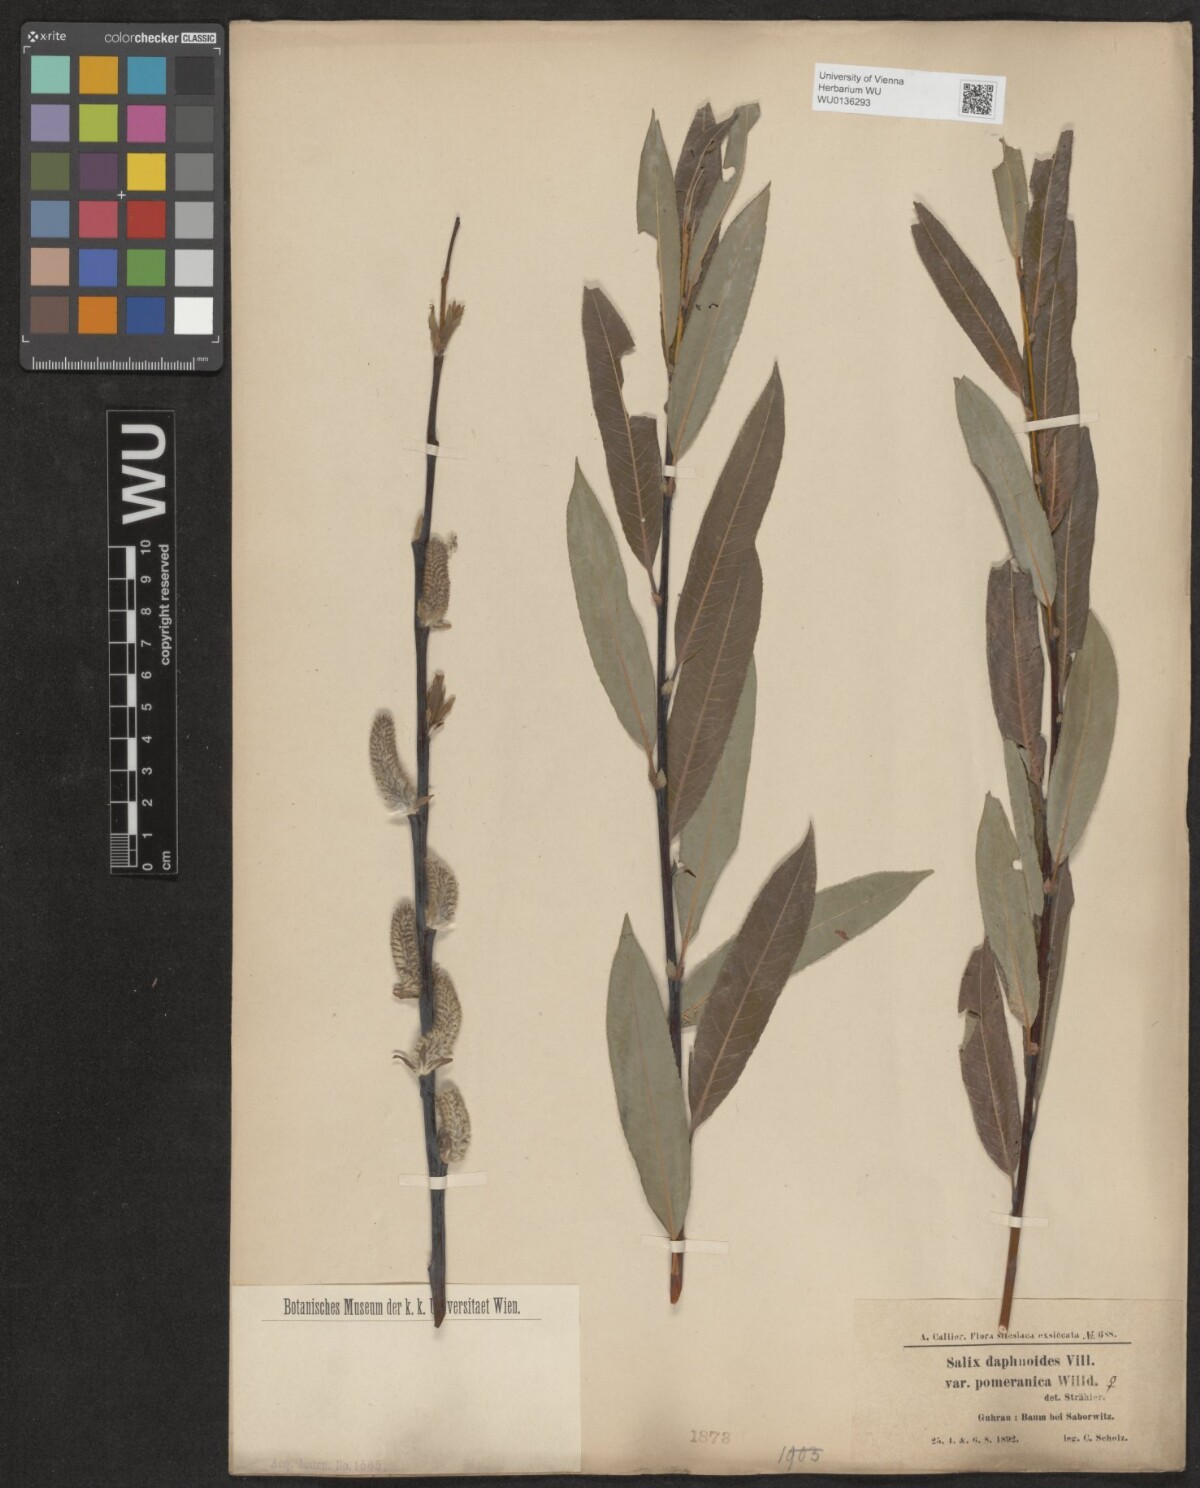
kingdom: Plantae
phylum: Tracheophyta
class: Magnoliopsida
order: Malpighiales
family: Salicaceae
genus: Salix
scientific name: Salix daphnoides
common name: European violet-willow
